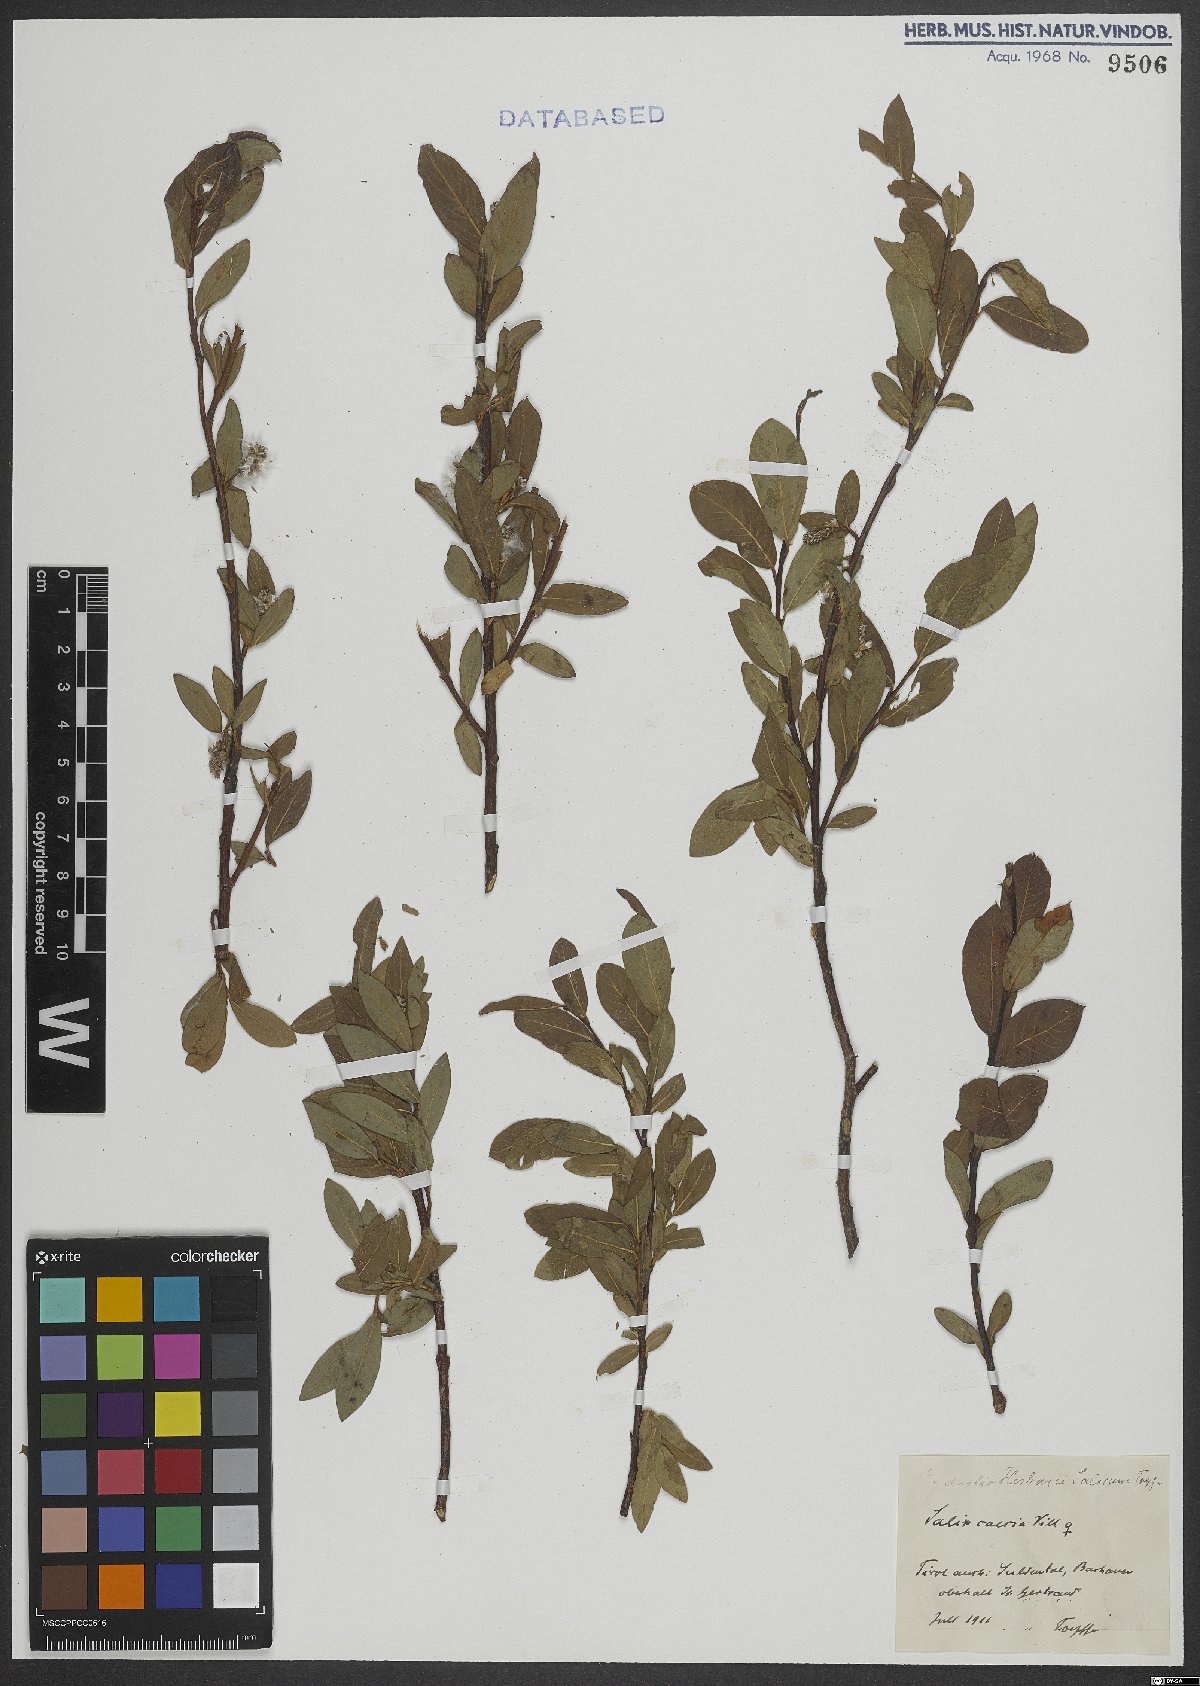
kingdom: Plantae
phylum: Tracheophyta
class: Magnoliopsida
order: Malpighiales
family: Salicaceae
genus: Salix
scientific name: Salix caesia
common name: Blue willow
